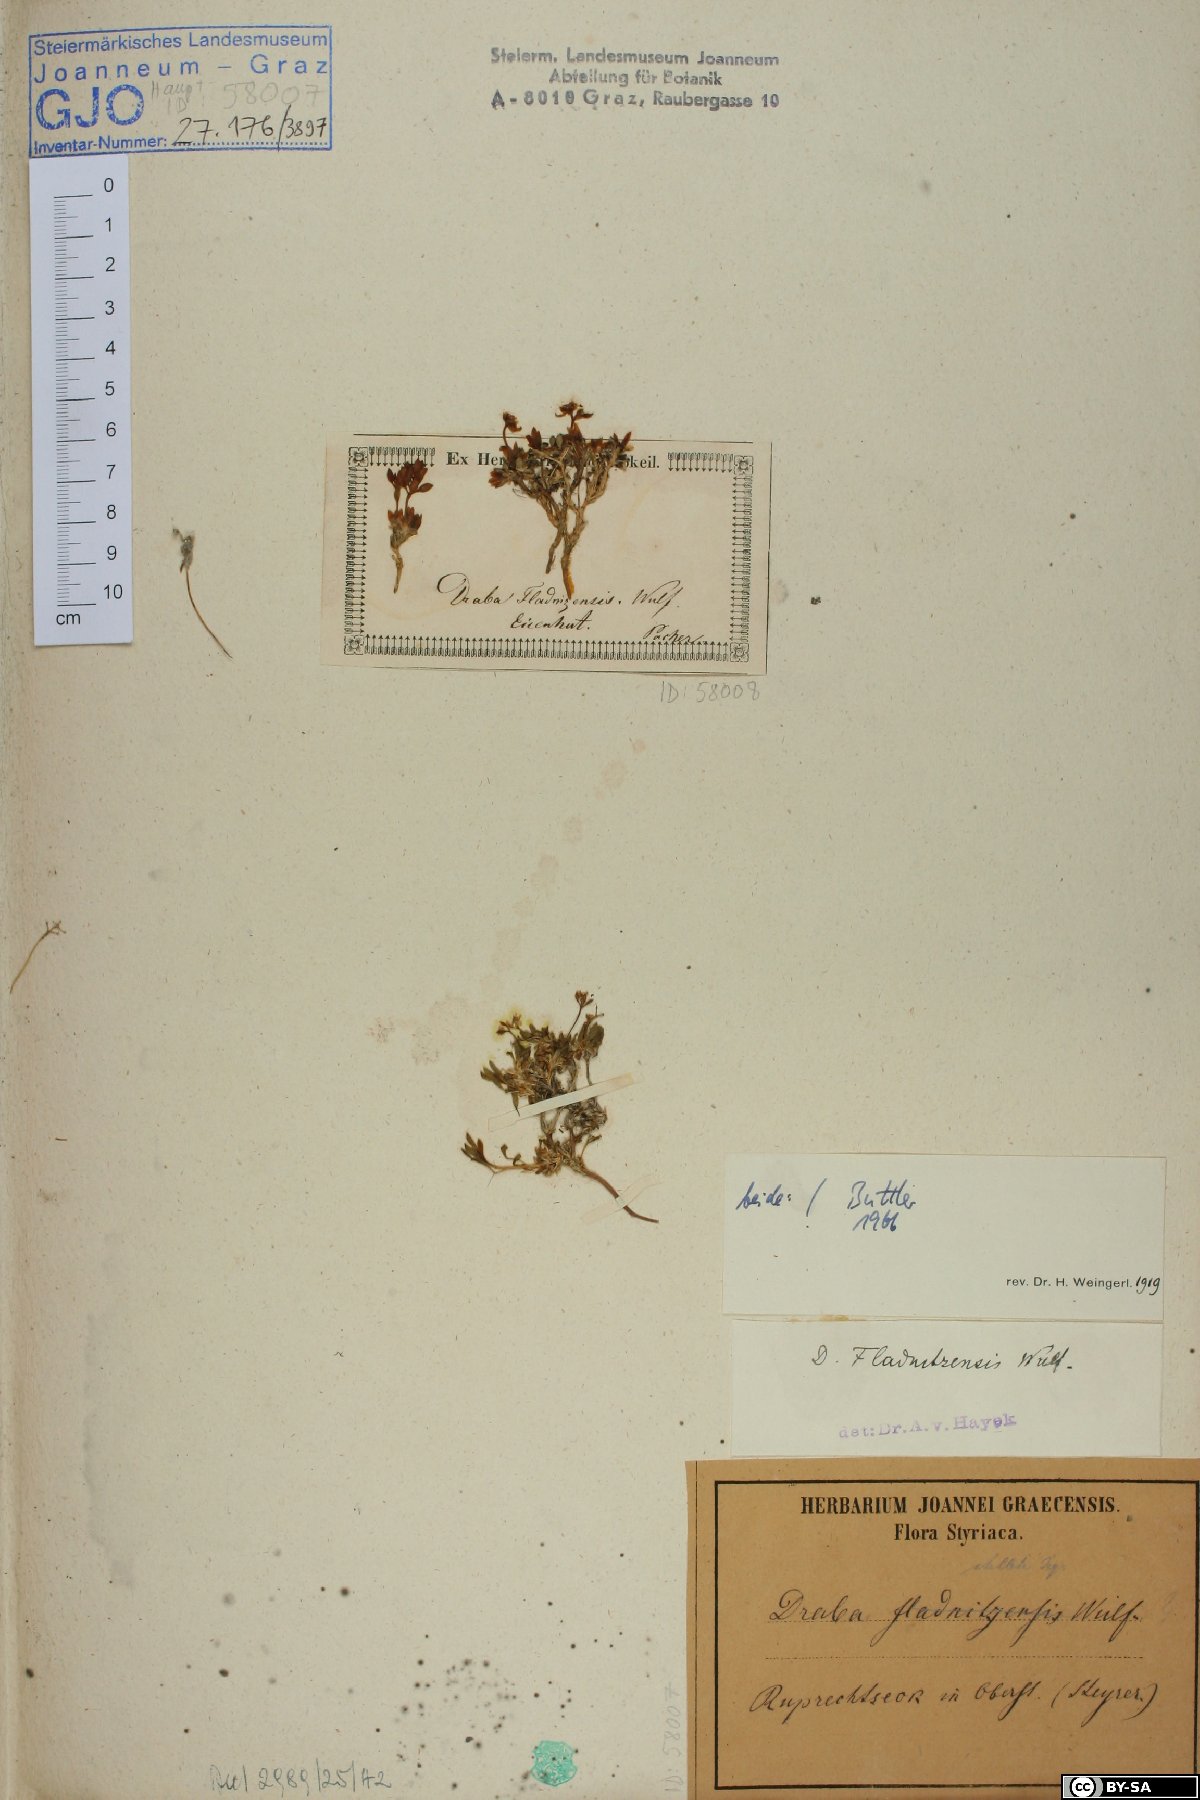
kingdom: Plantae
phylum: Tracheophyta
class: Magnoliopsida
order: Brassicales
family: Brassicaceae
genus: Draba
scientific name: Draba fladnizensis
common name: Austrian draba
